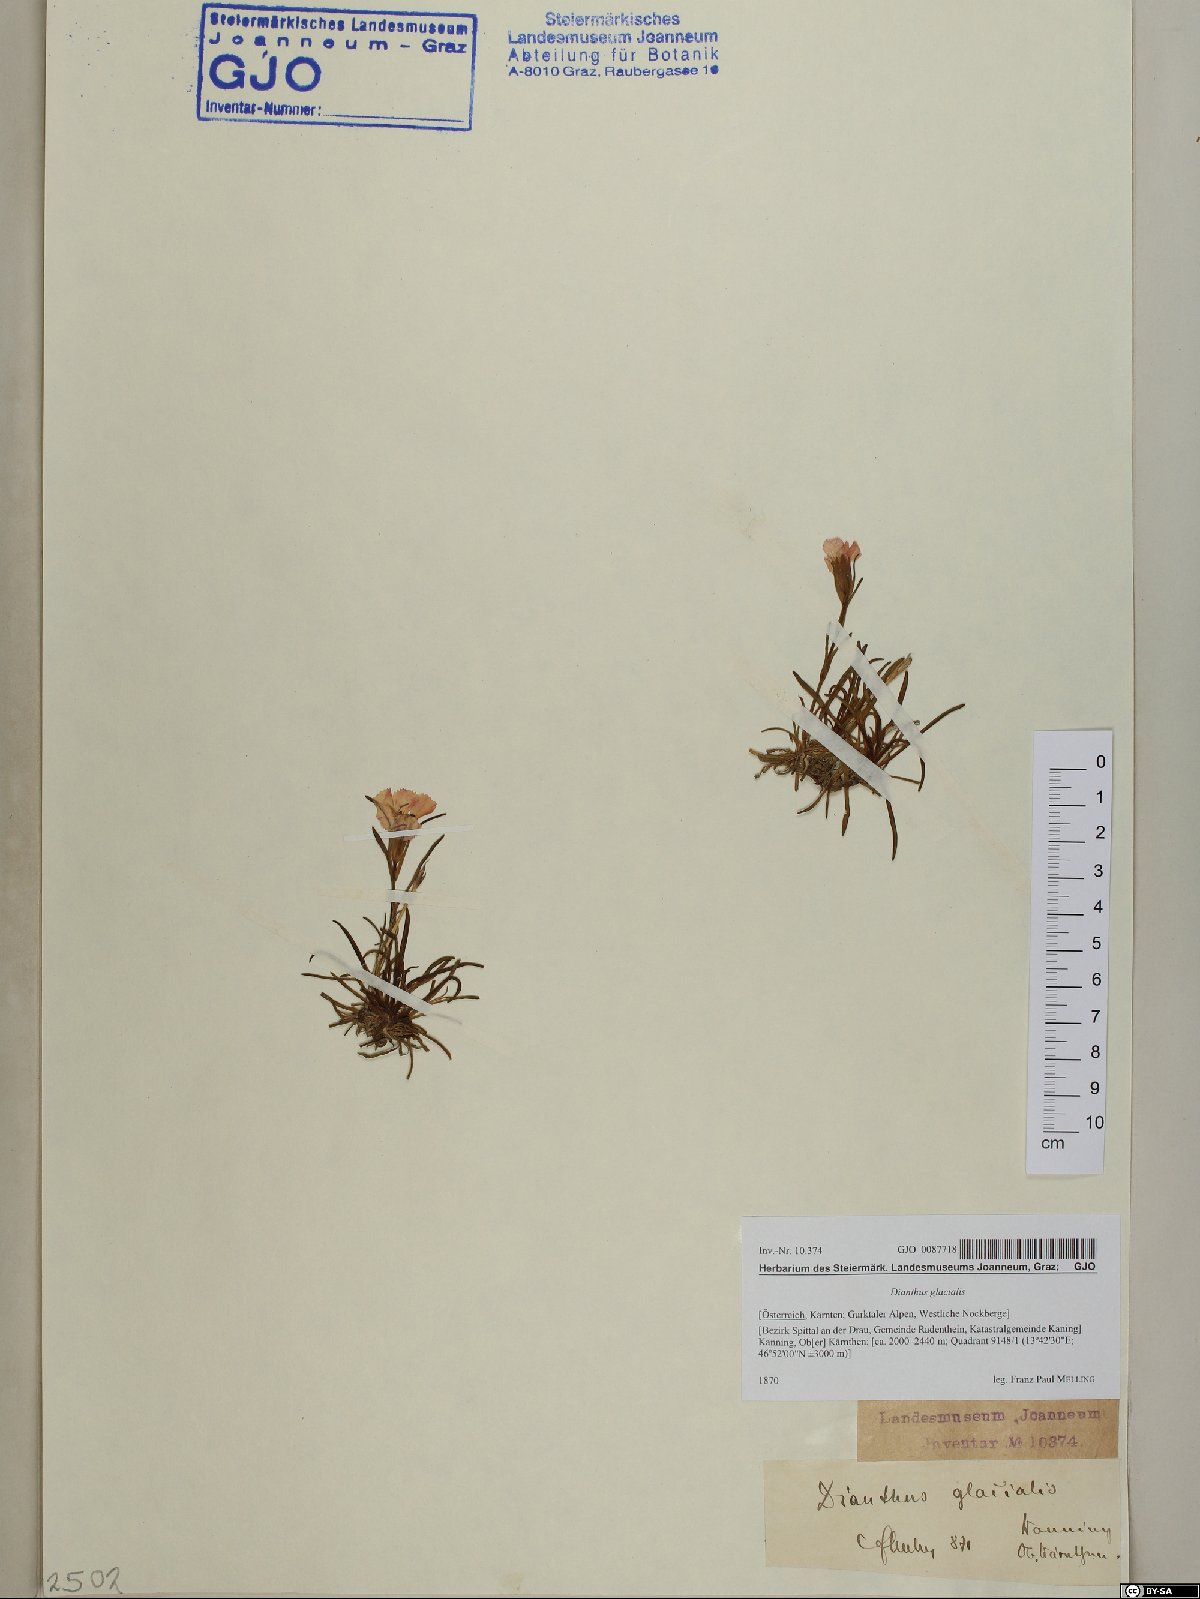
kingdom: Plantae
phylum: Tracheophyta
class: Magnoliopsida
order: Caryophyllales
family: Caryophyllaceae
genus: Dianthus
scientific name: Dianthus glacialis
